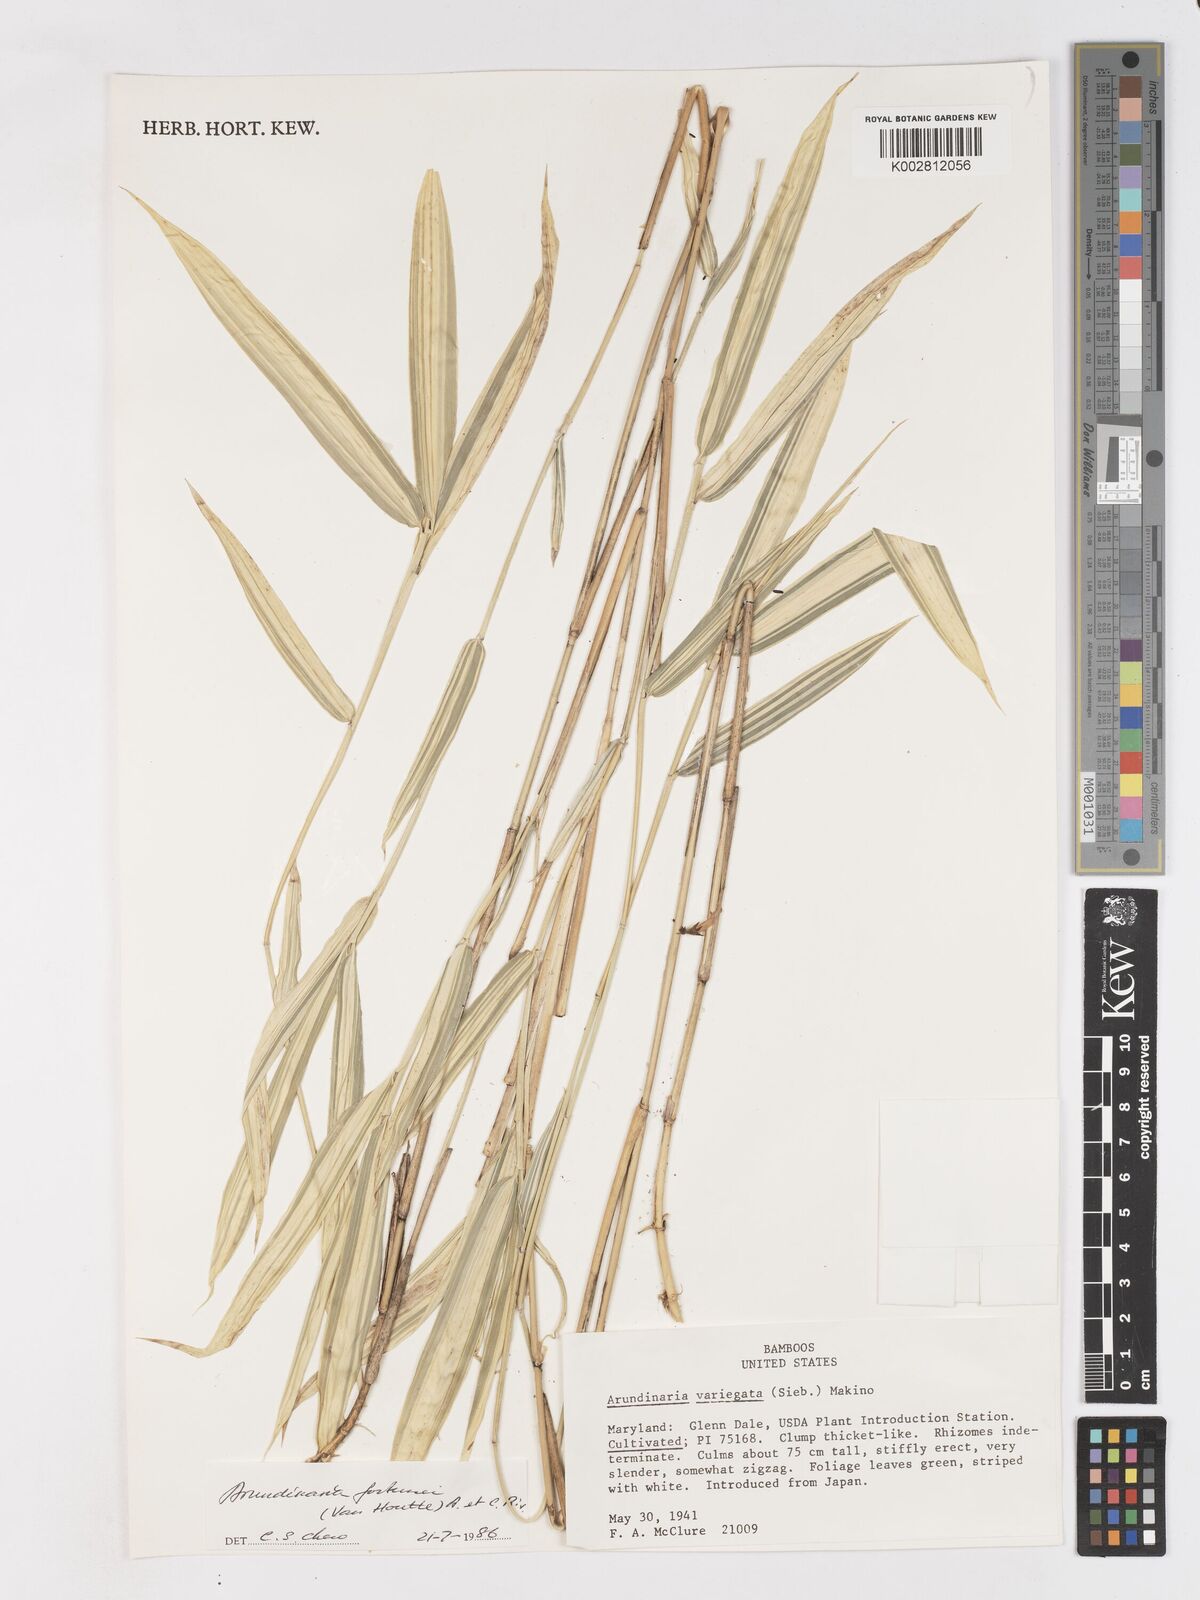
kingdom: Plantae
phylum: Tracheophyta
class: Liliopsida
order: Poales
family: Poaceae
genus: Borinda
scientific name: Borinda pleniculmis
